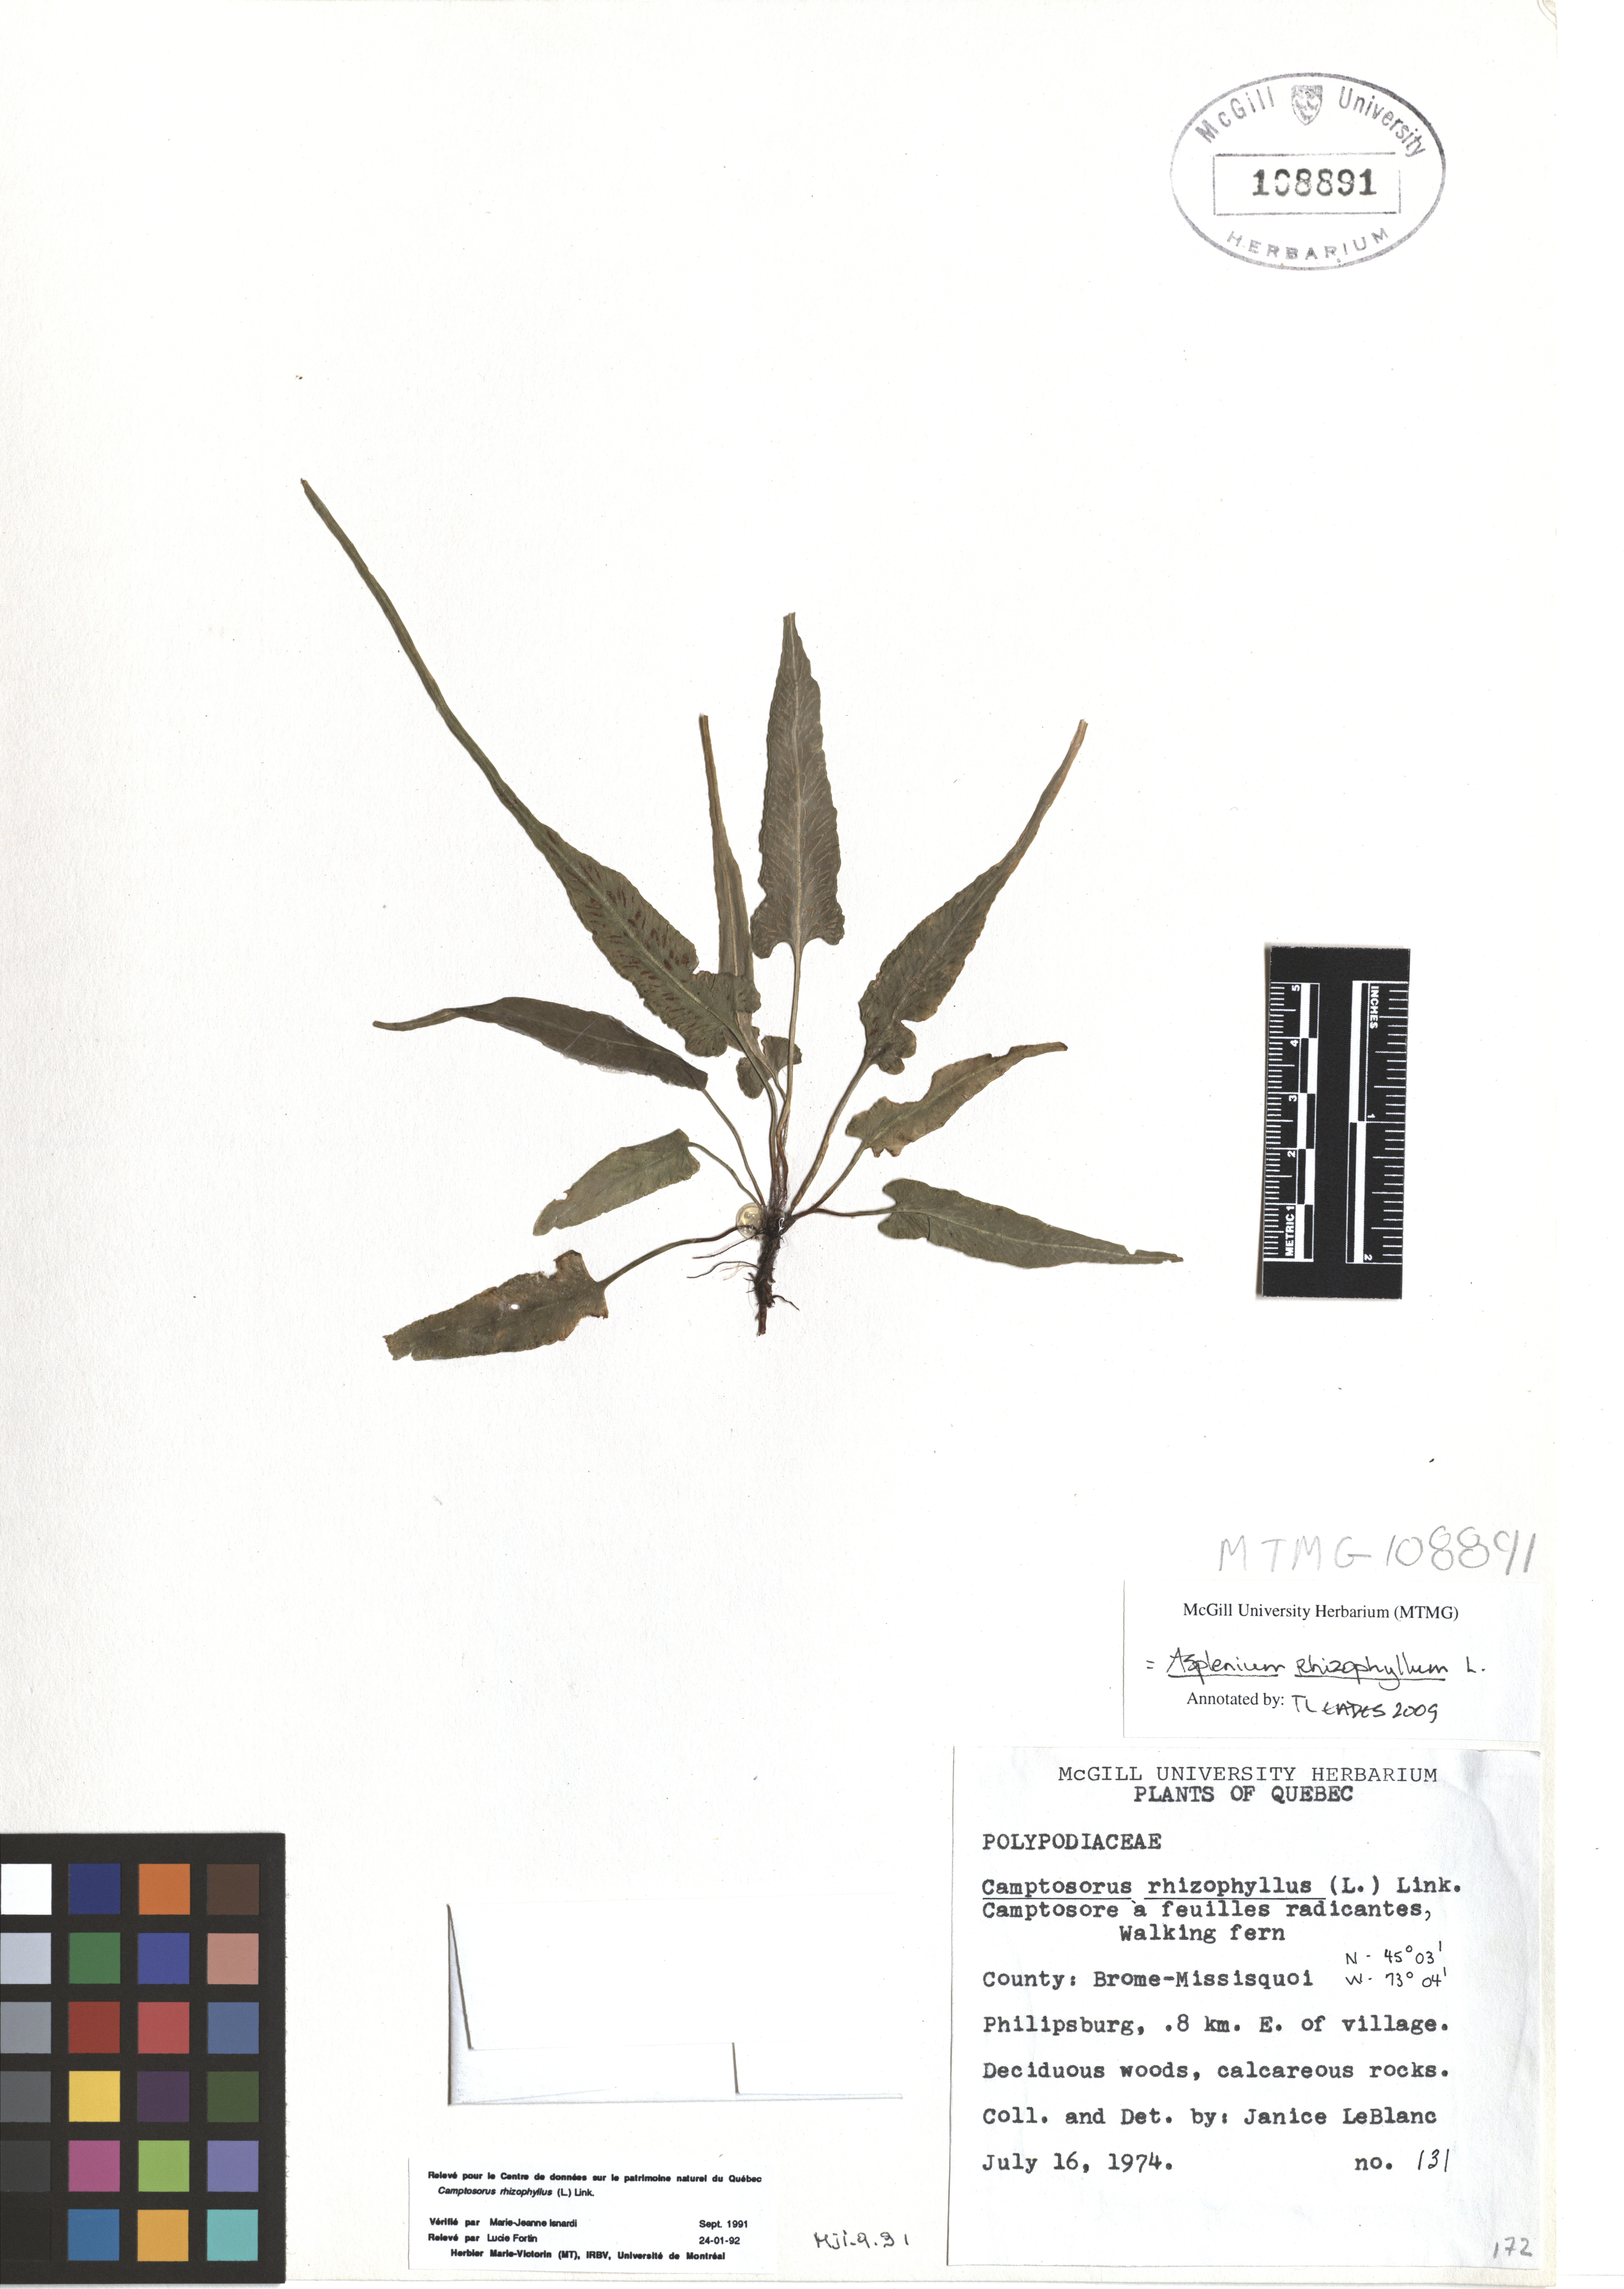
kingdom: Plantae
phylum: Tracheophyta
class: Polypodiopsida
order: Polypodiales
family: Aspleniaceae
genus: Asplenium
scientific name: Asplenium radicans
